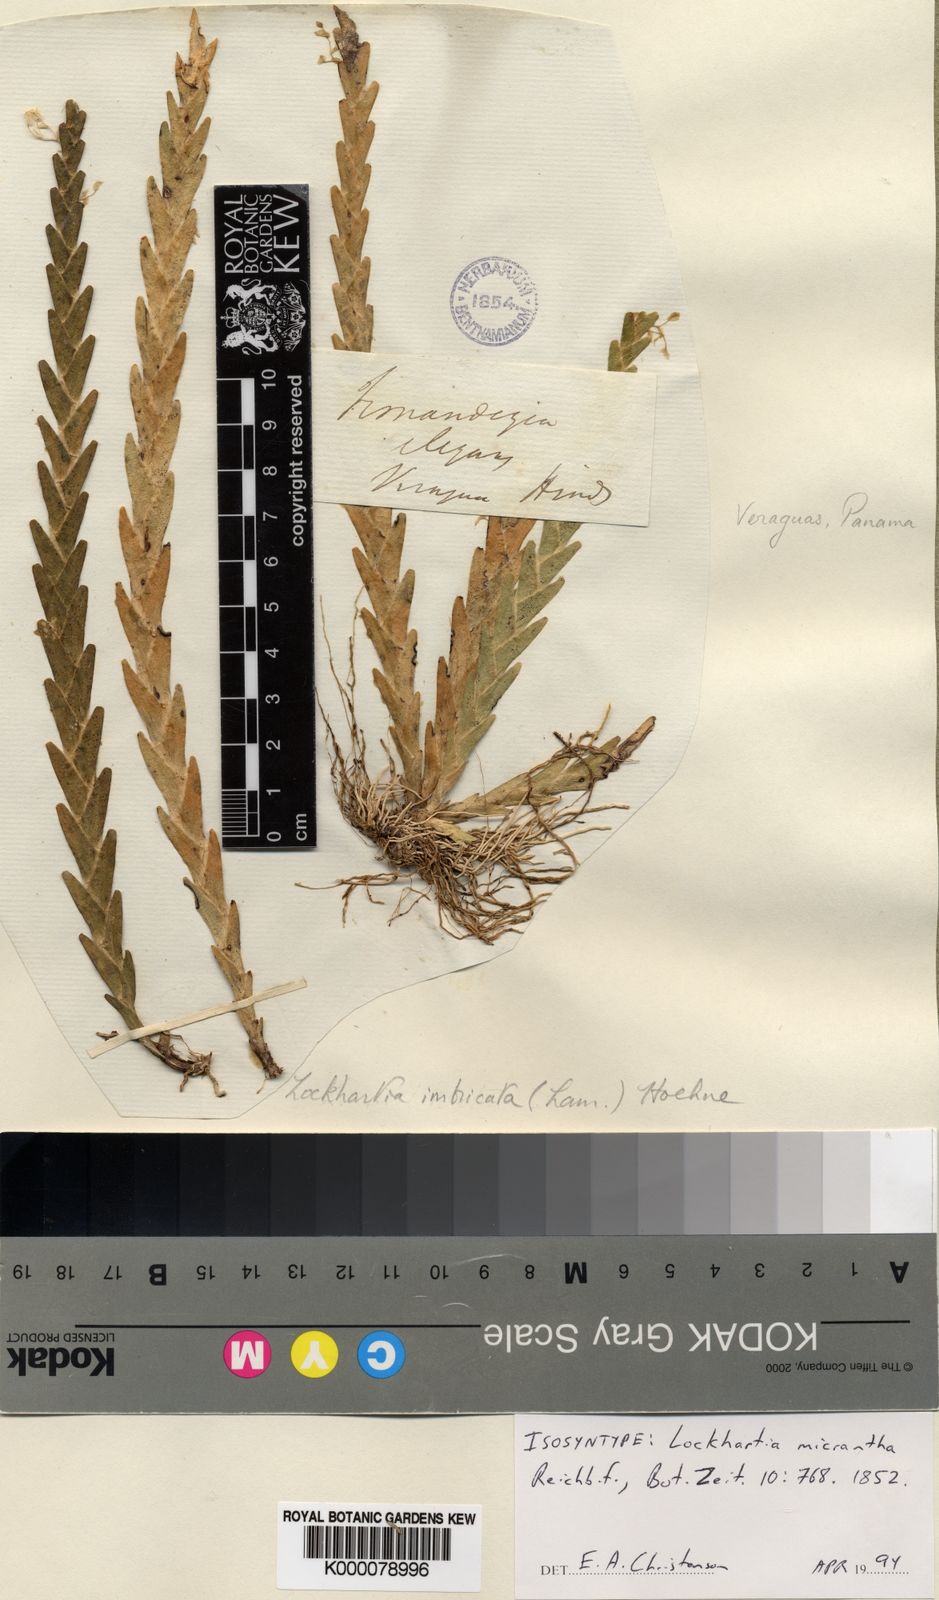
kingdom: Plantae
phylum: Tracheophyta
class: Liliopsida
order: Asparagales
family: Orchidaceae
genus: Lockhartia
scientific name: Lockhartia micrantha
